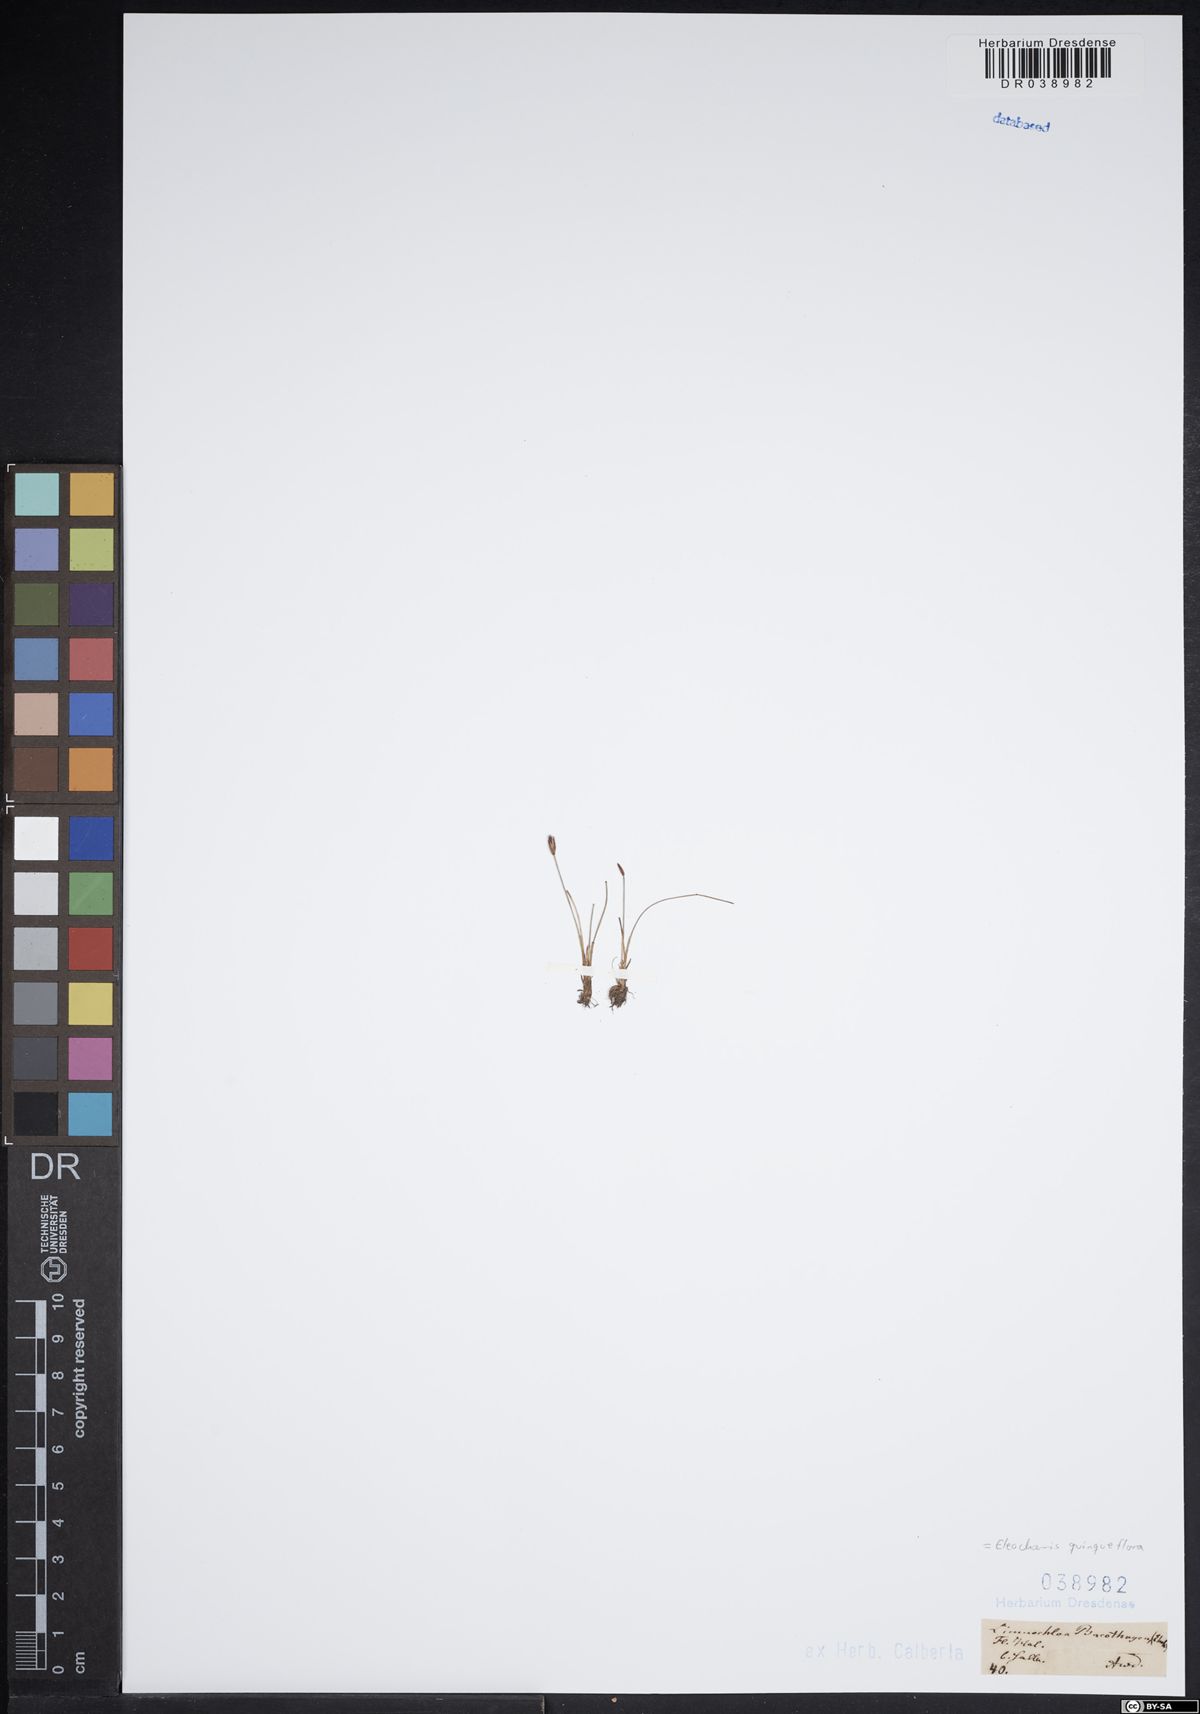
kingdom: Plantae
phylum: Tracheophyta
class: Liliopsida
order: Poales
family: Cyperaceae
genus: Eleocharis
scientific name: Eleocharis quinqueflora
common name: Few-flowered spike-rush
